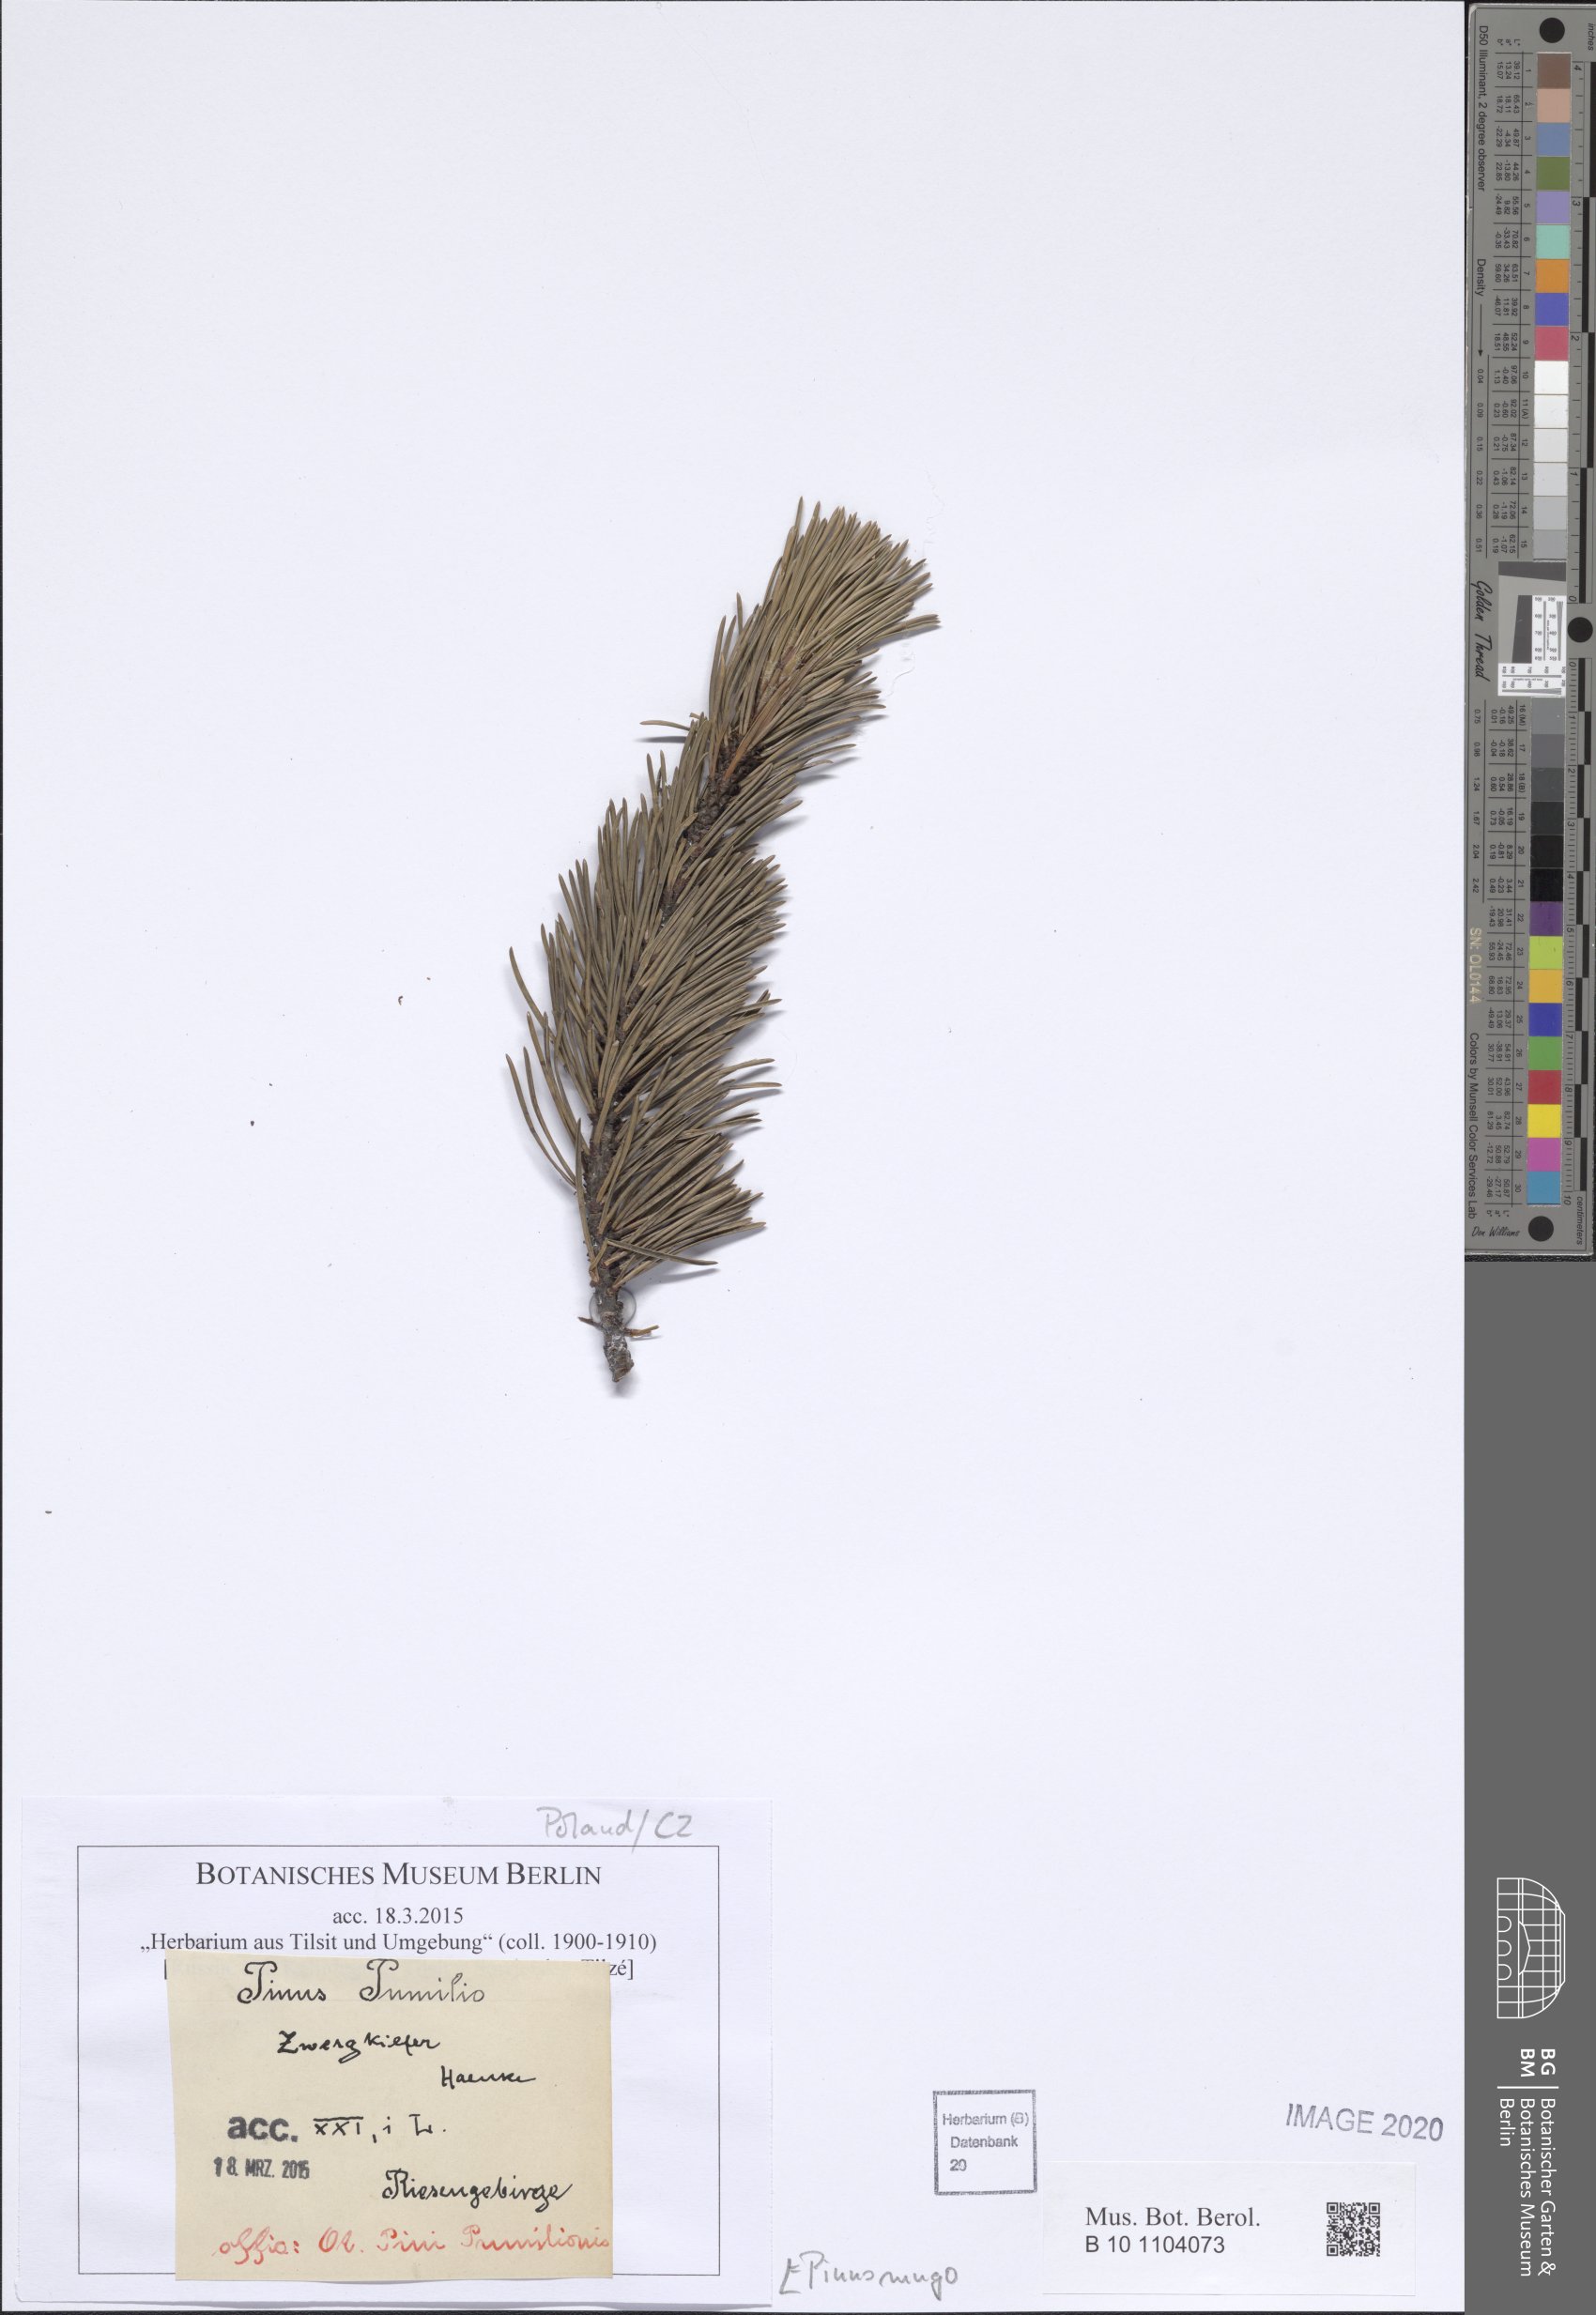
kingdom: Plantae
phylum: Tracheophyta
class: Pinopsida
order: Pinales
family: Pinaceae
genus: Pinus
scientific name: Pinus mugo
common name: Mugo pine
